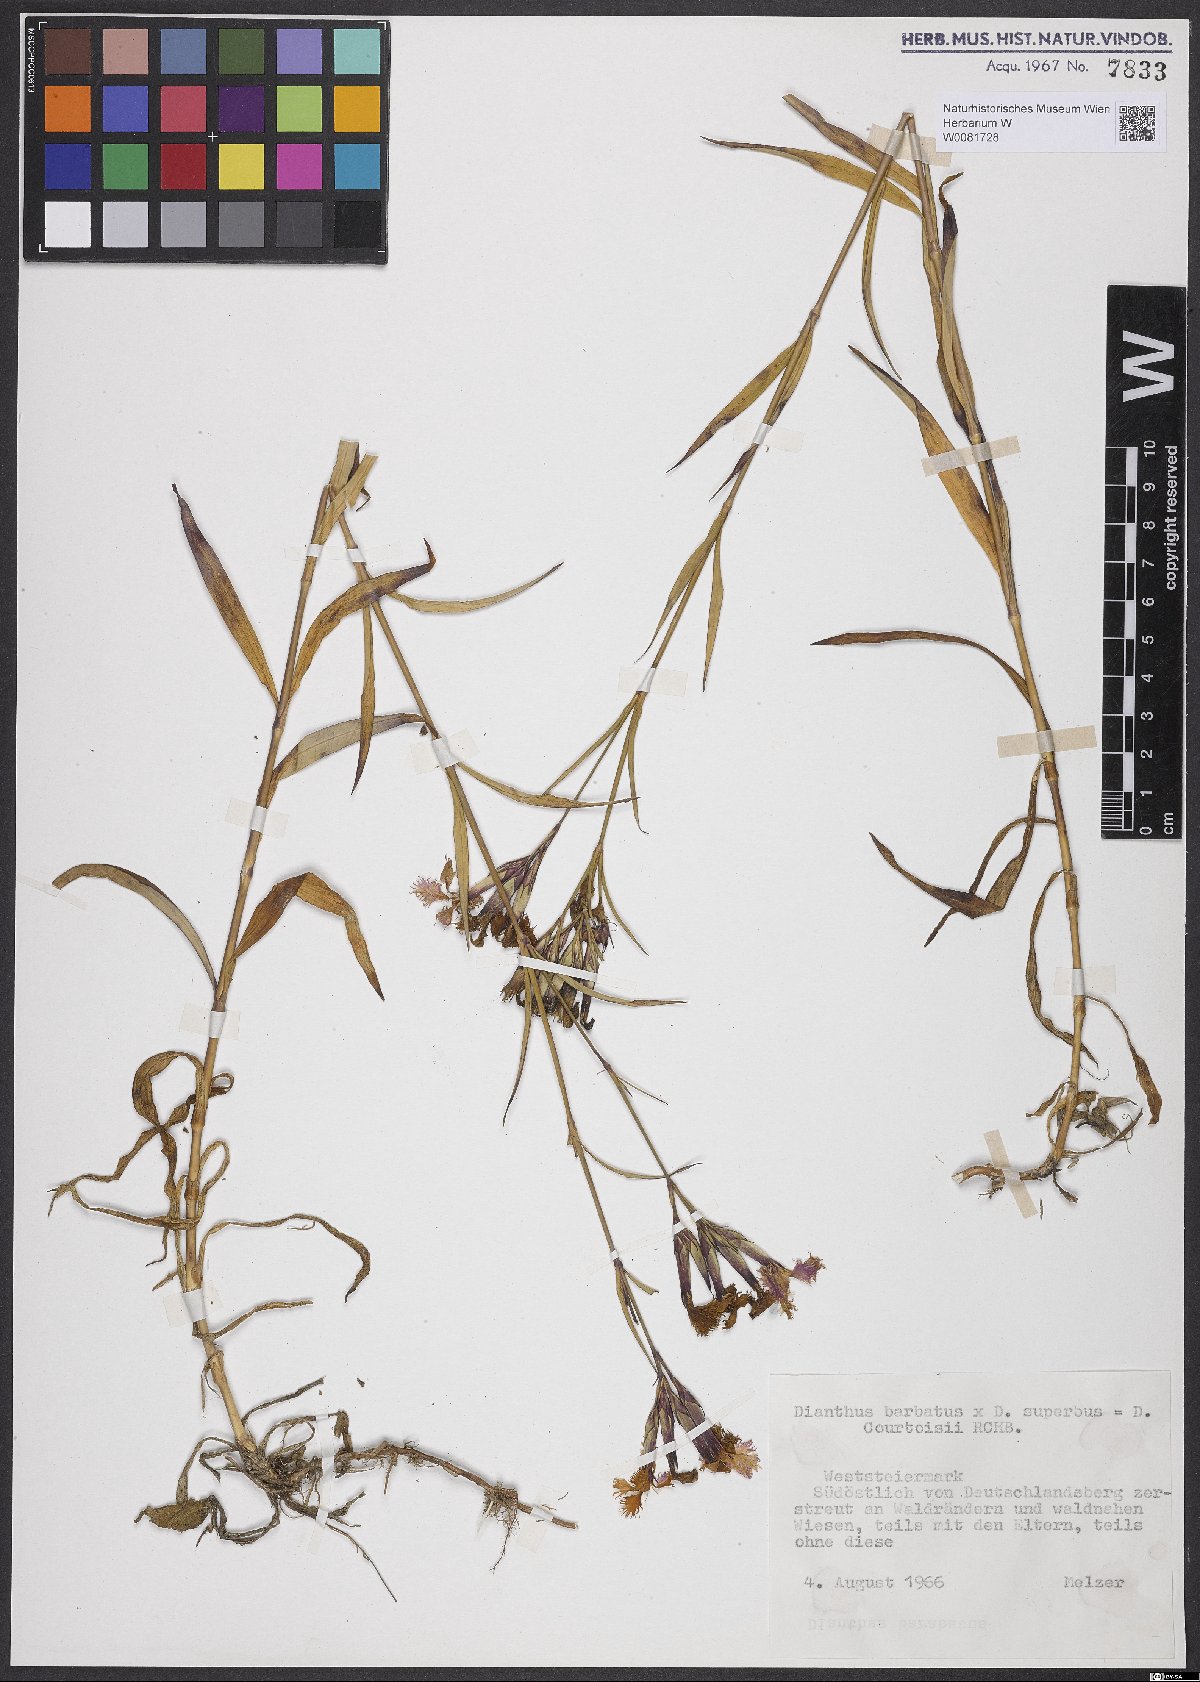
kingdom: Plantae
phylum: Tracheophyta
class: Magnoliopsida
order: Caryophyllales
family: Caryophyllaceae
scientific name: Caryophyllaceae
